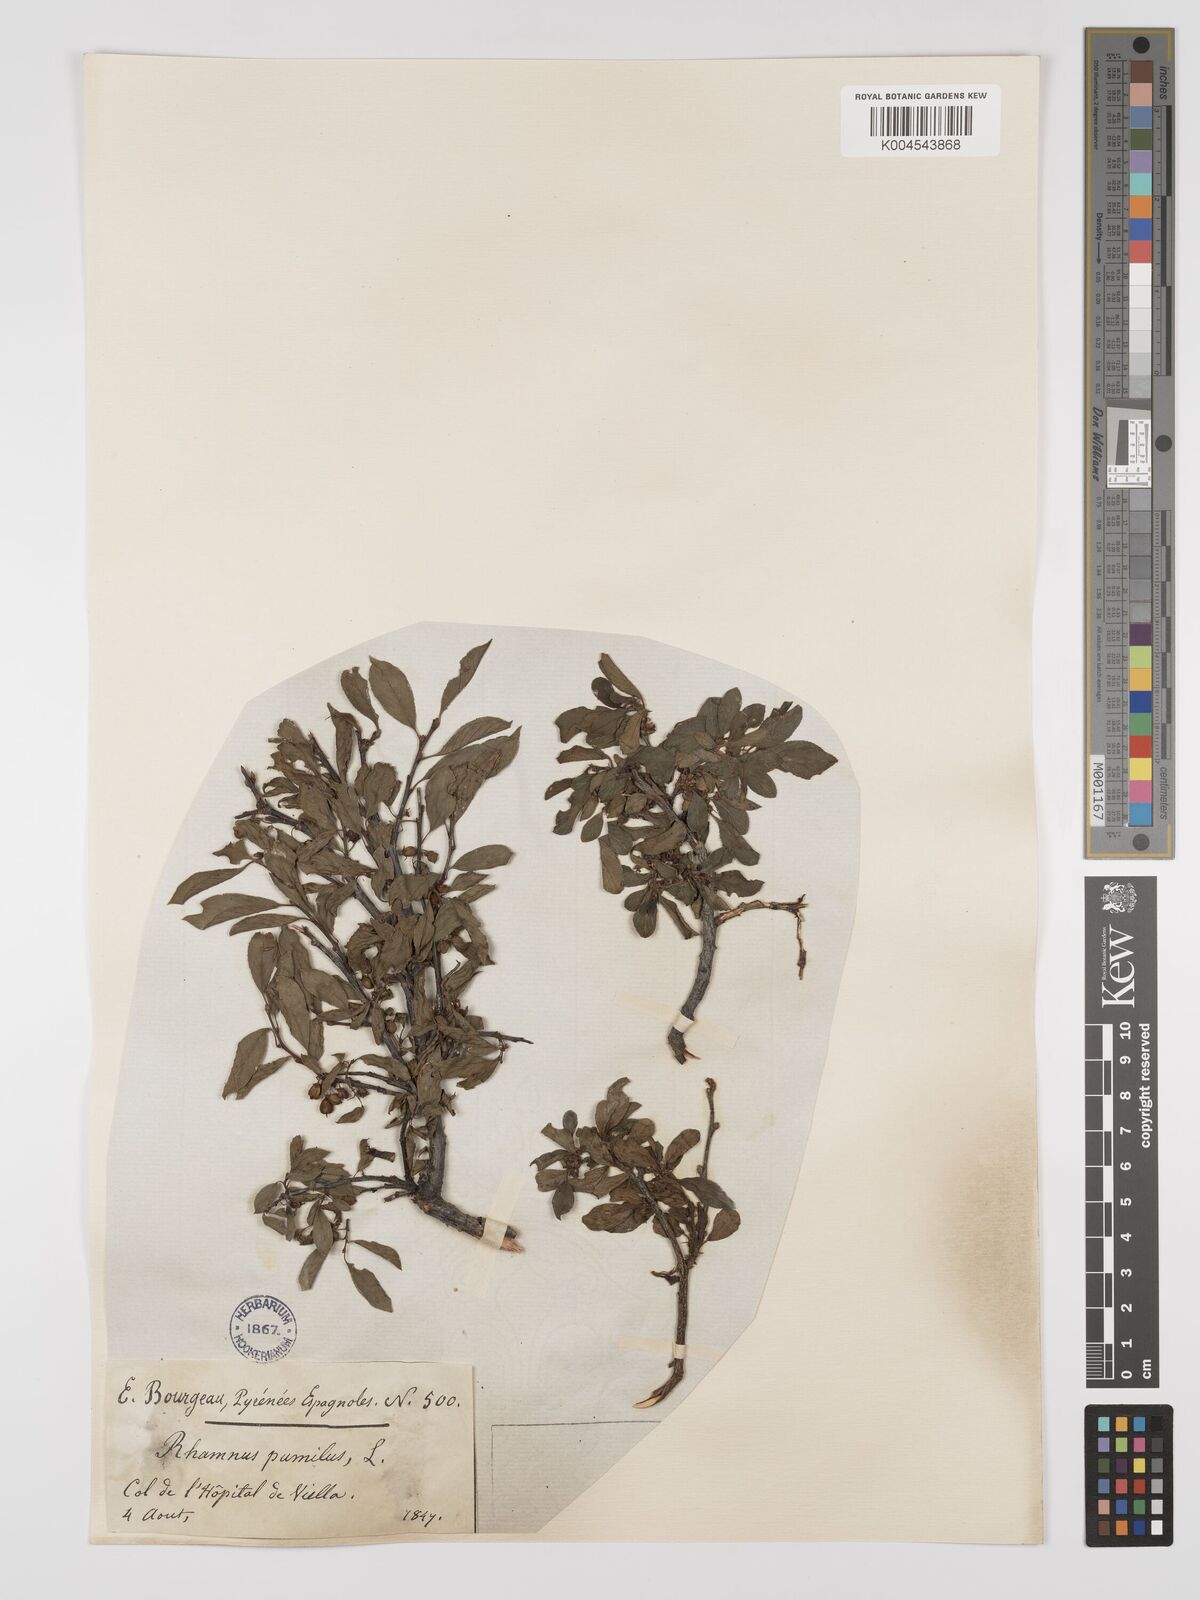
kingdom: Plantae
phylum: Tracheophyta
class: Magnoliopsida
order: Rosales
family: Rhamnaceae
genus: Rhamnus
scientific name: Rhamnus
